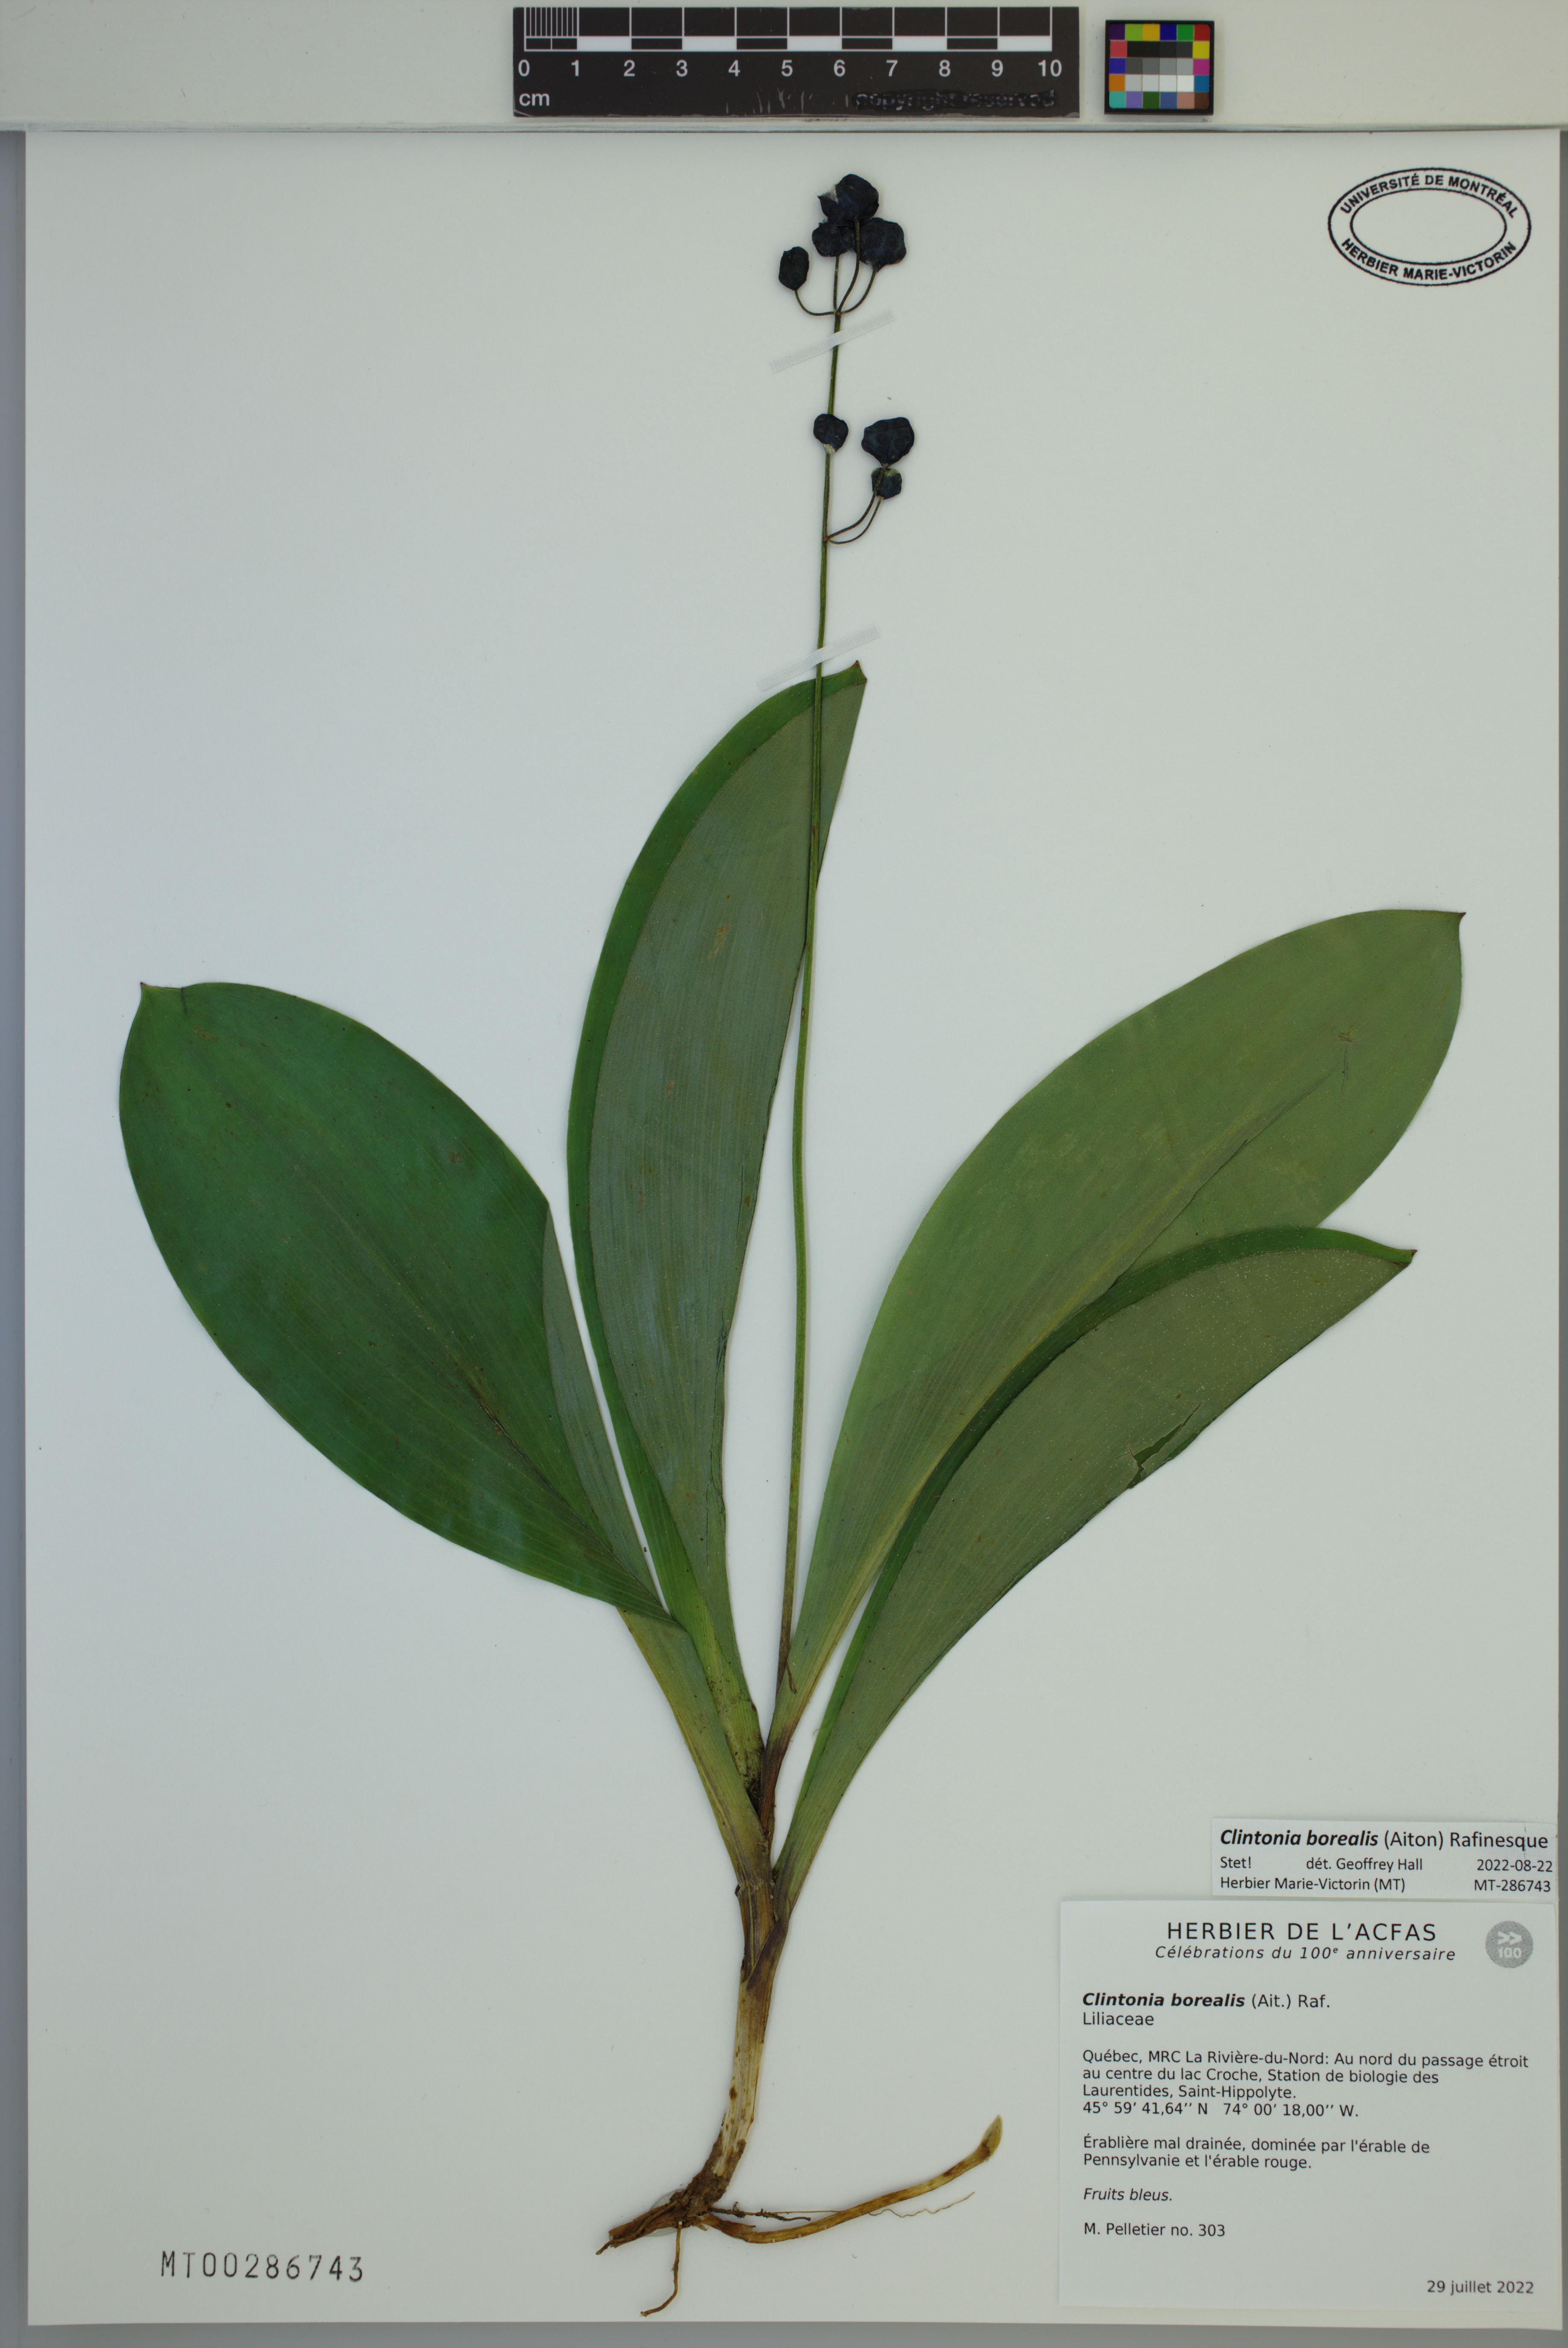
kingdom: Plantae
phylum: Tracheophyta
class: Liliopsida
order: Liliales
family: Liliaceae
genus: Clintonia
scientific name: Clintonia borealis
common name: Yellow clintonia
